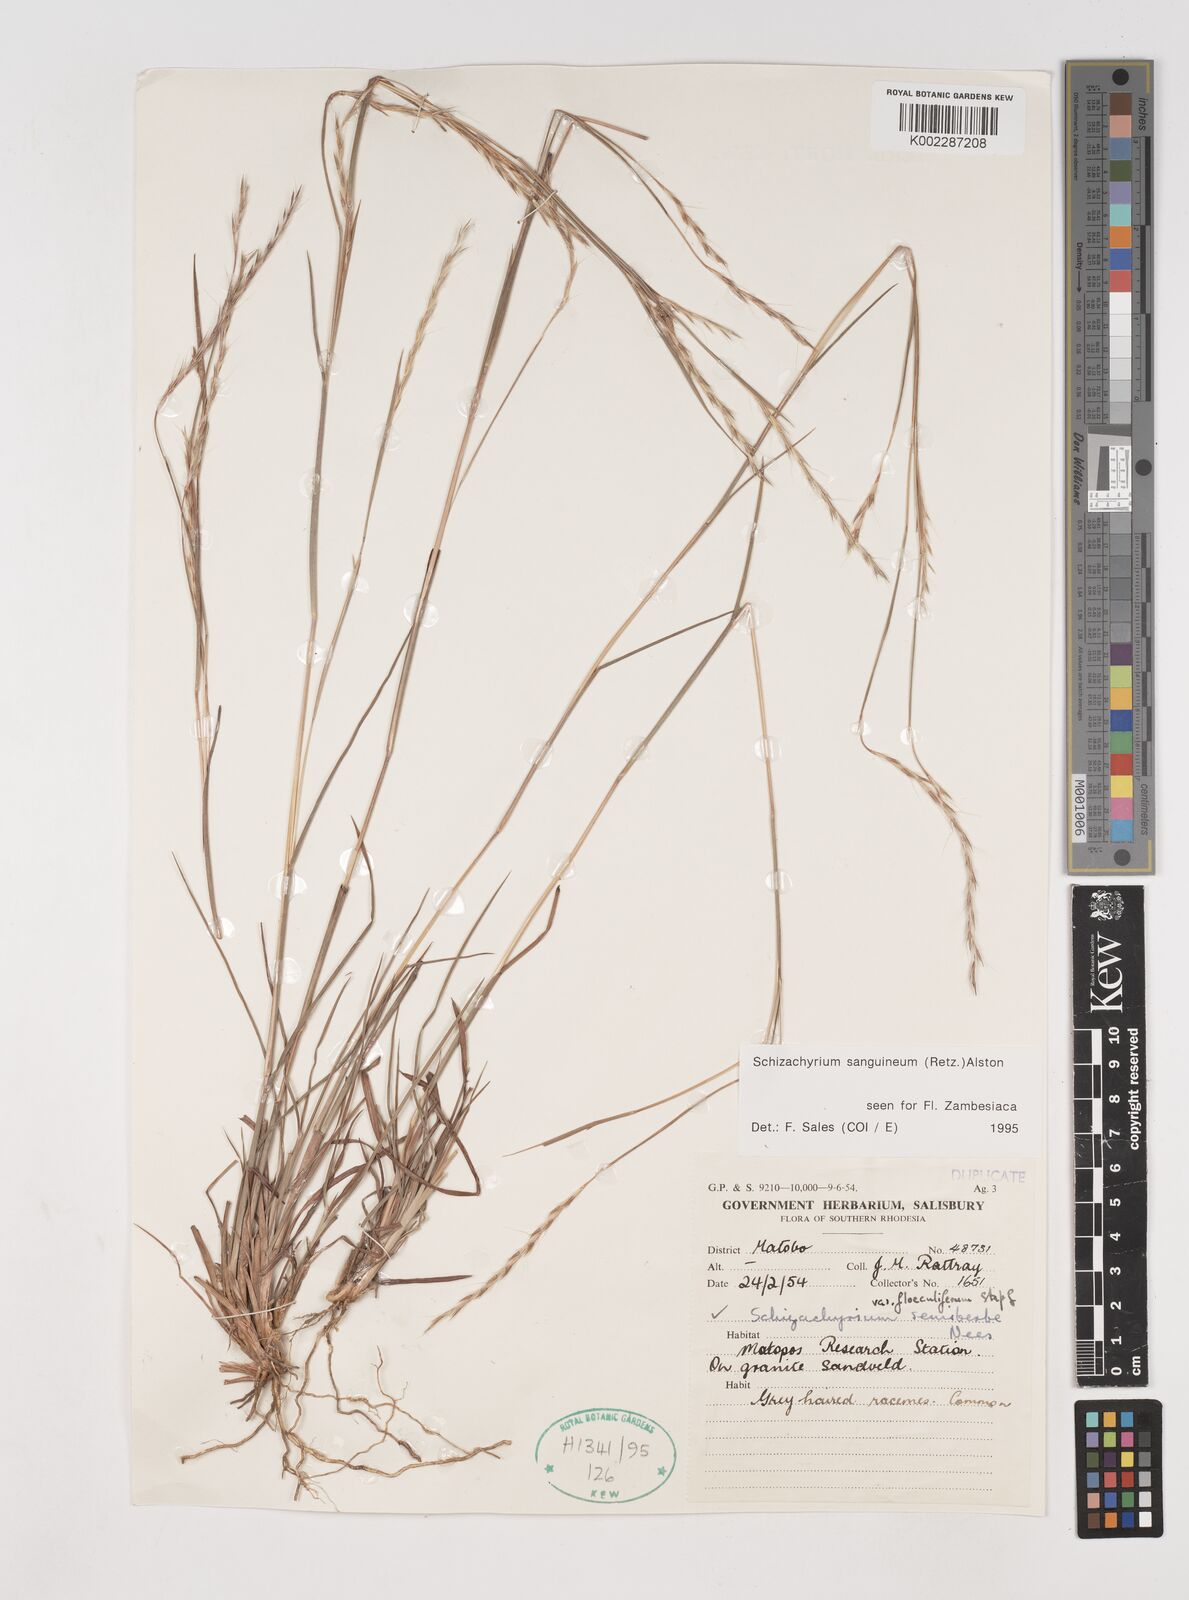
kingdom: Plantae
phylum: Tracheophyta
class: Liliopsida
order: Poales
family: Poaceae
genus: Schizachyrium
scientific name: Schizachyrium sanguineum
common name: Crimson bluestem
